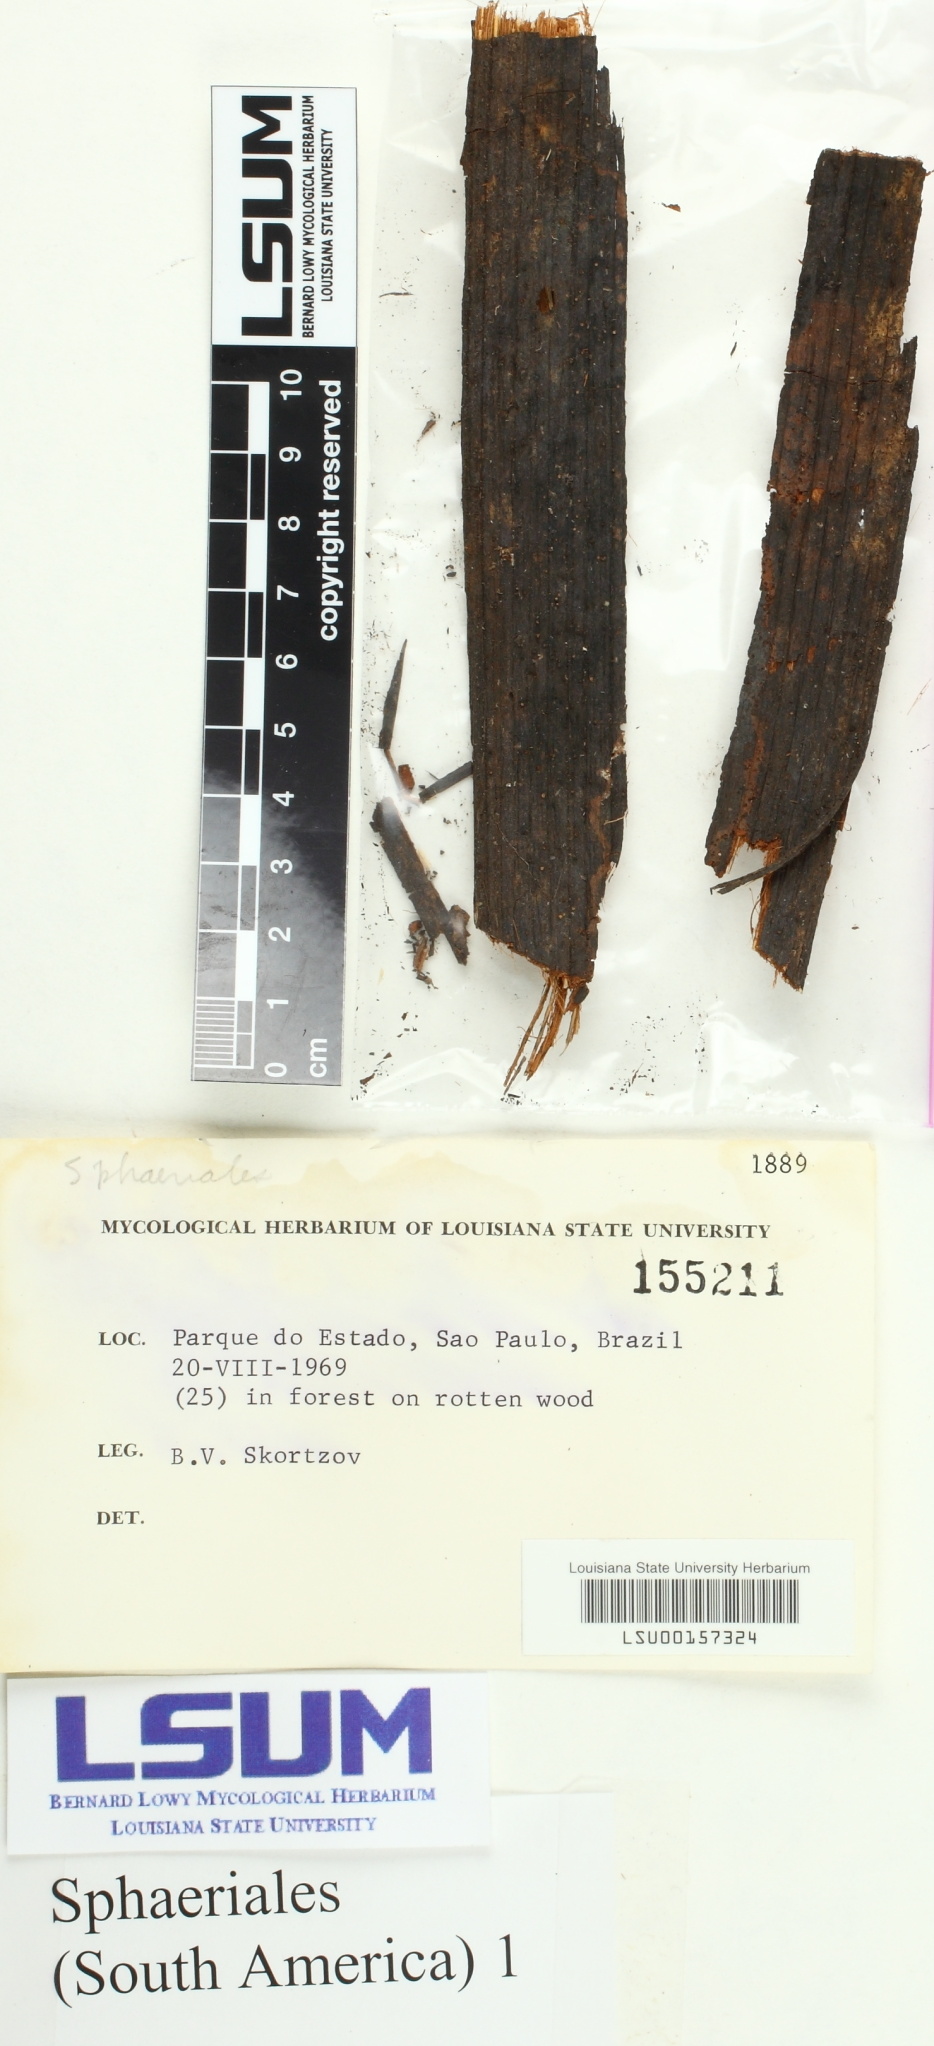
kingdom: Fungi
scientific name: Fungi
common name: Fungi
